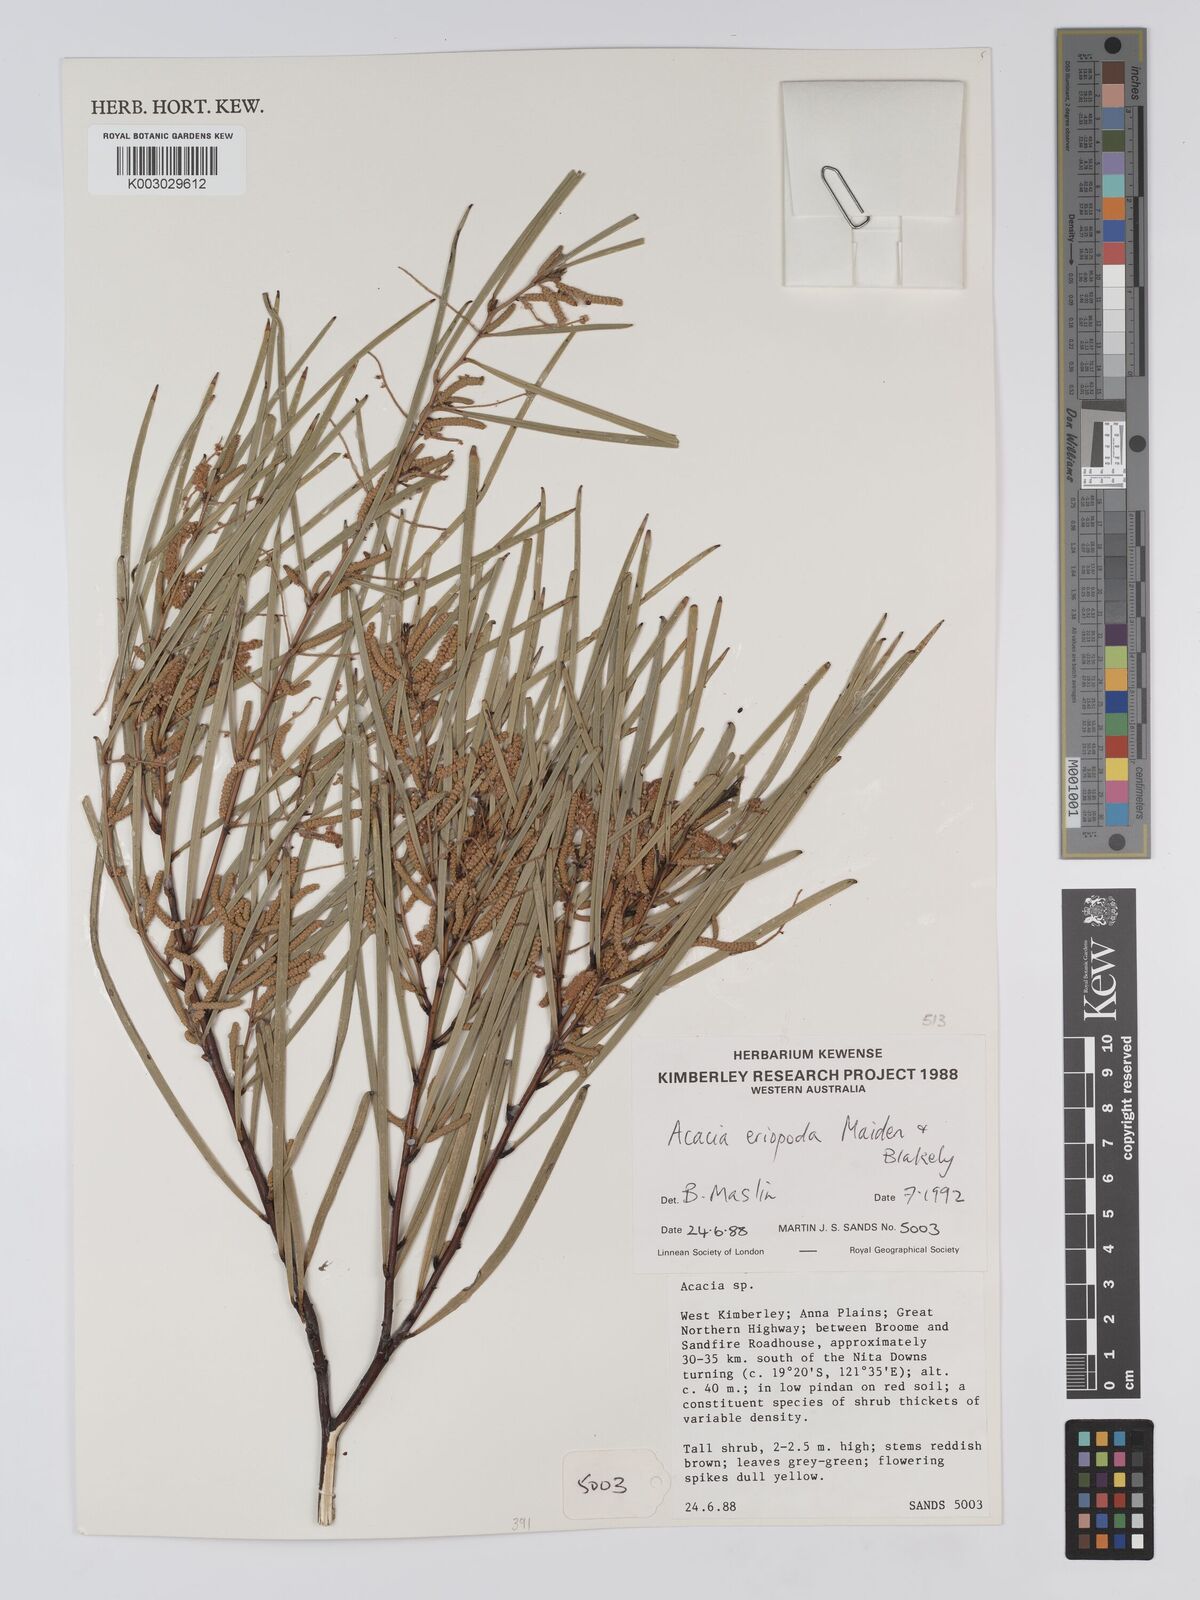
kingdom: Plantae
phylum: Tracheophyta
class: Magnoliopsida
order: Fabales
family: Fabaceae
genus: Acacia
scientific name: Acacia eriopoda
